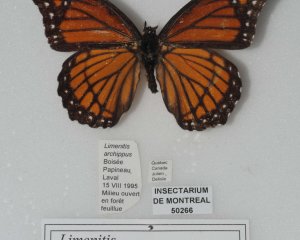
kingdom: Animalia
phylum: Arthropoda
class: Insecta
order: Lepidoptera
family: Nymphalidae
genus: Limenitis
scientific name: Limenitis archippus
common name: Viceroy
